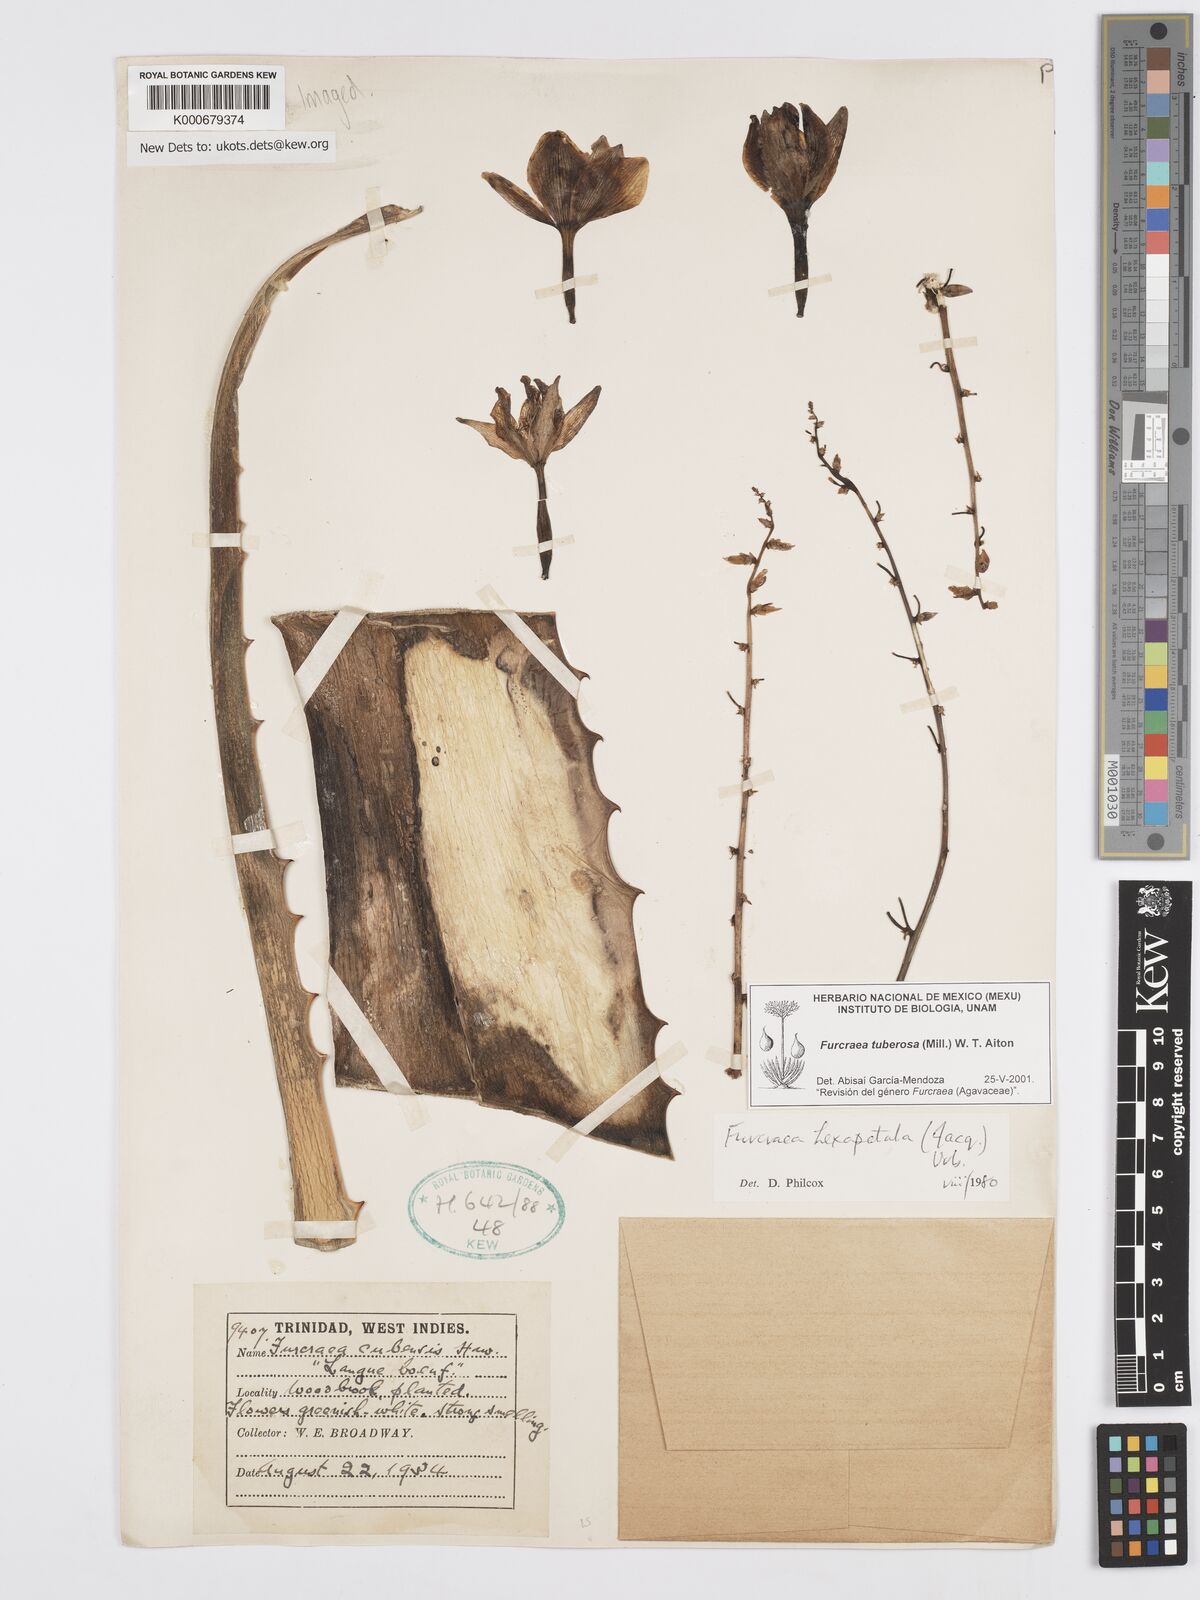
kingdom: Plantae
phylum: Tracheophyta
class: Liliopsida
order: Asparagales
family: Asparagaceae
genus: Furcraea
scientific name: Furcraea tuberosa
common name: Karata
